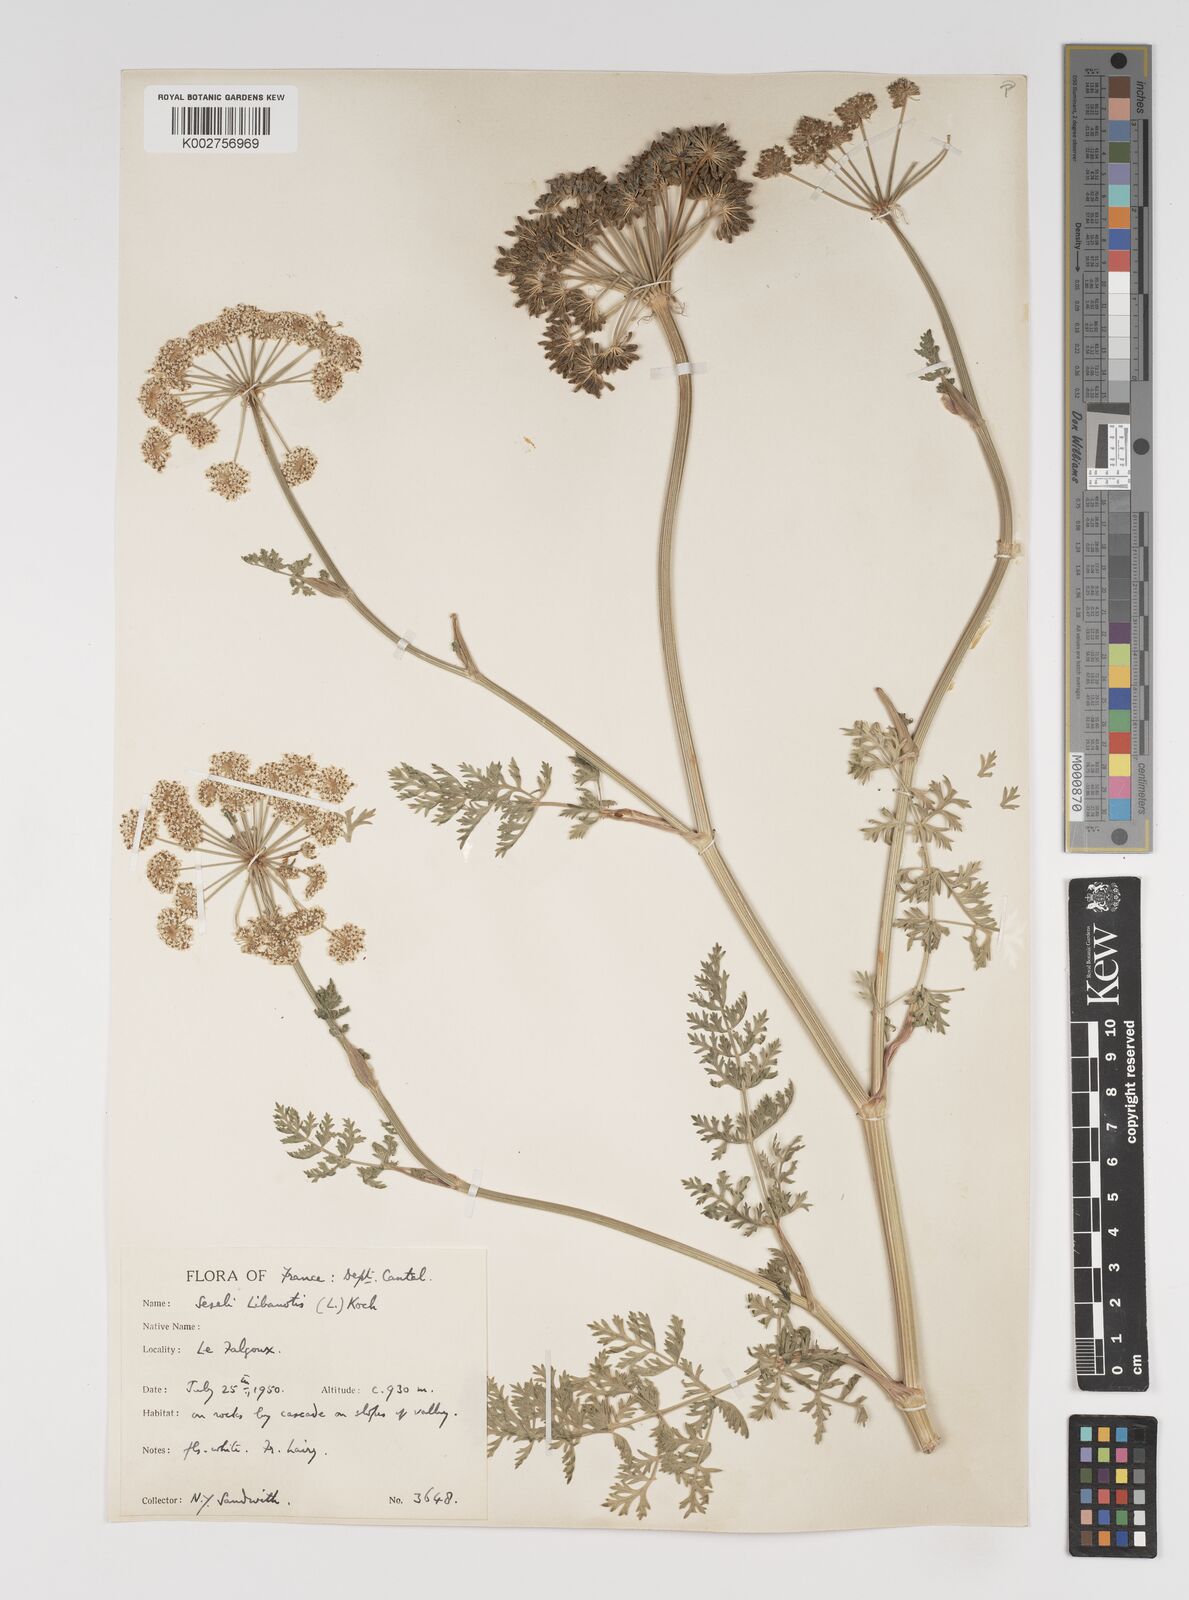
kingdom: Plantae
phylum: Tracheophyta
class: Magnoliopsida
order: Apiales
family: Apiaceae
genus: Seseli
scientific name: Seseli libanotis
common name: Mooncarrot
